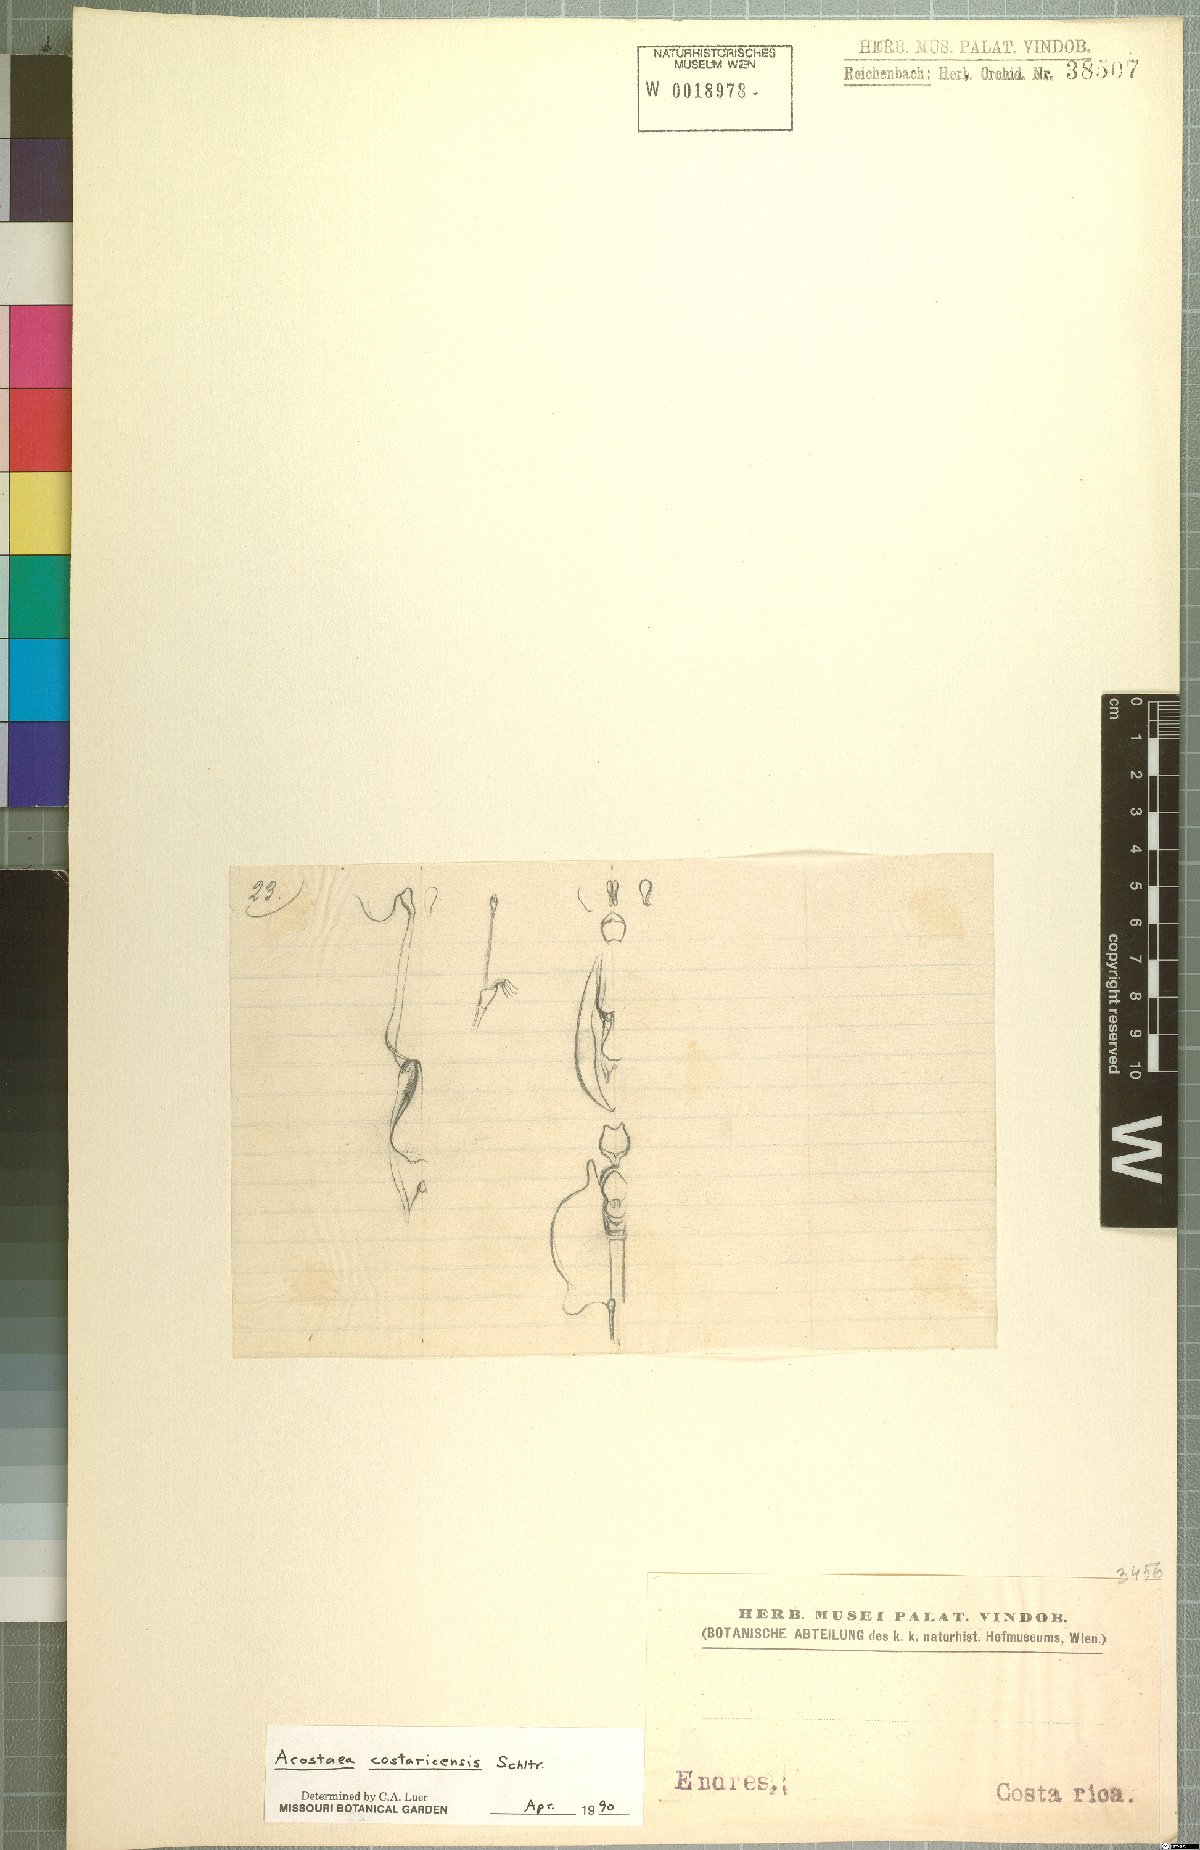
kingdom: Plantae
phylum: Tracheophyta
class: Liliopsida
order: Asparagales
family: Orchidaceae
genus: Specklinia
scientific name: Specklinia colombiana
